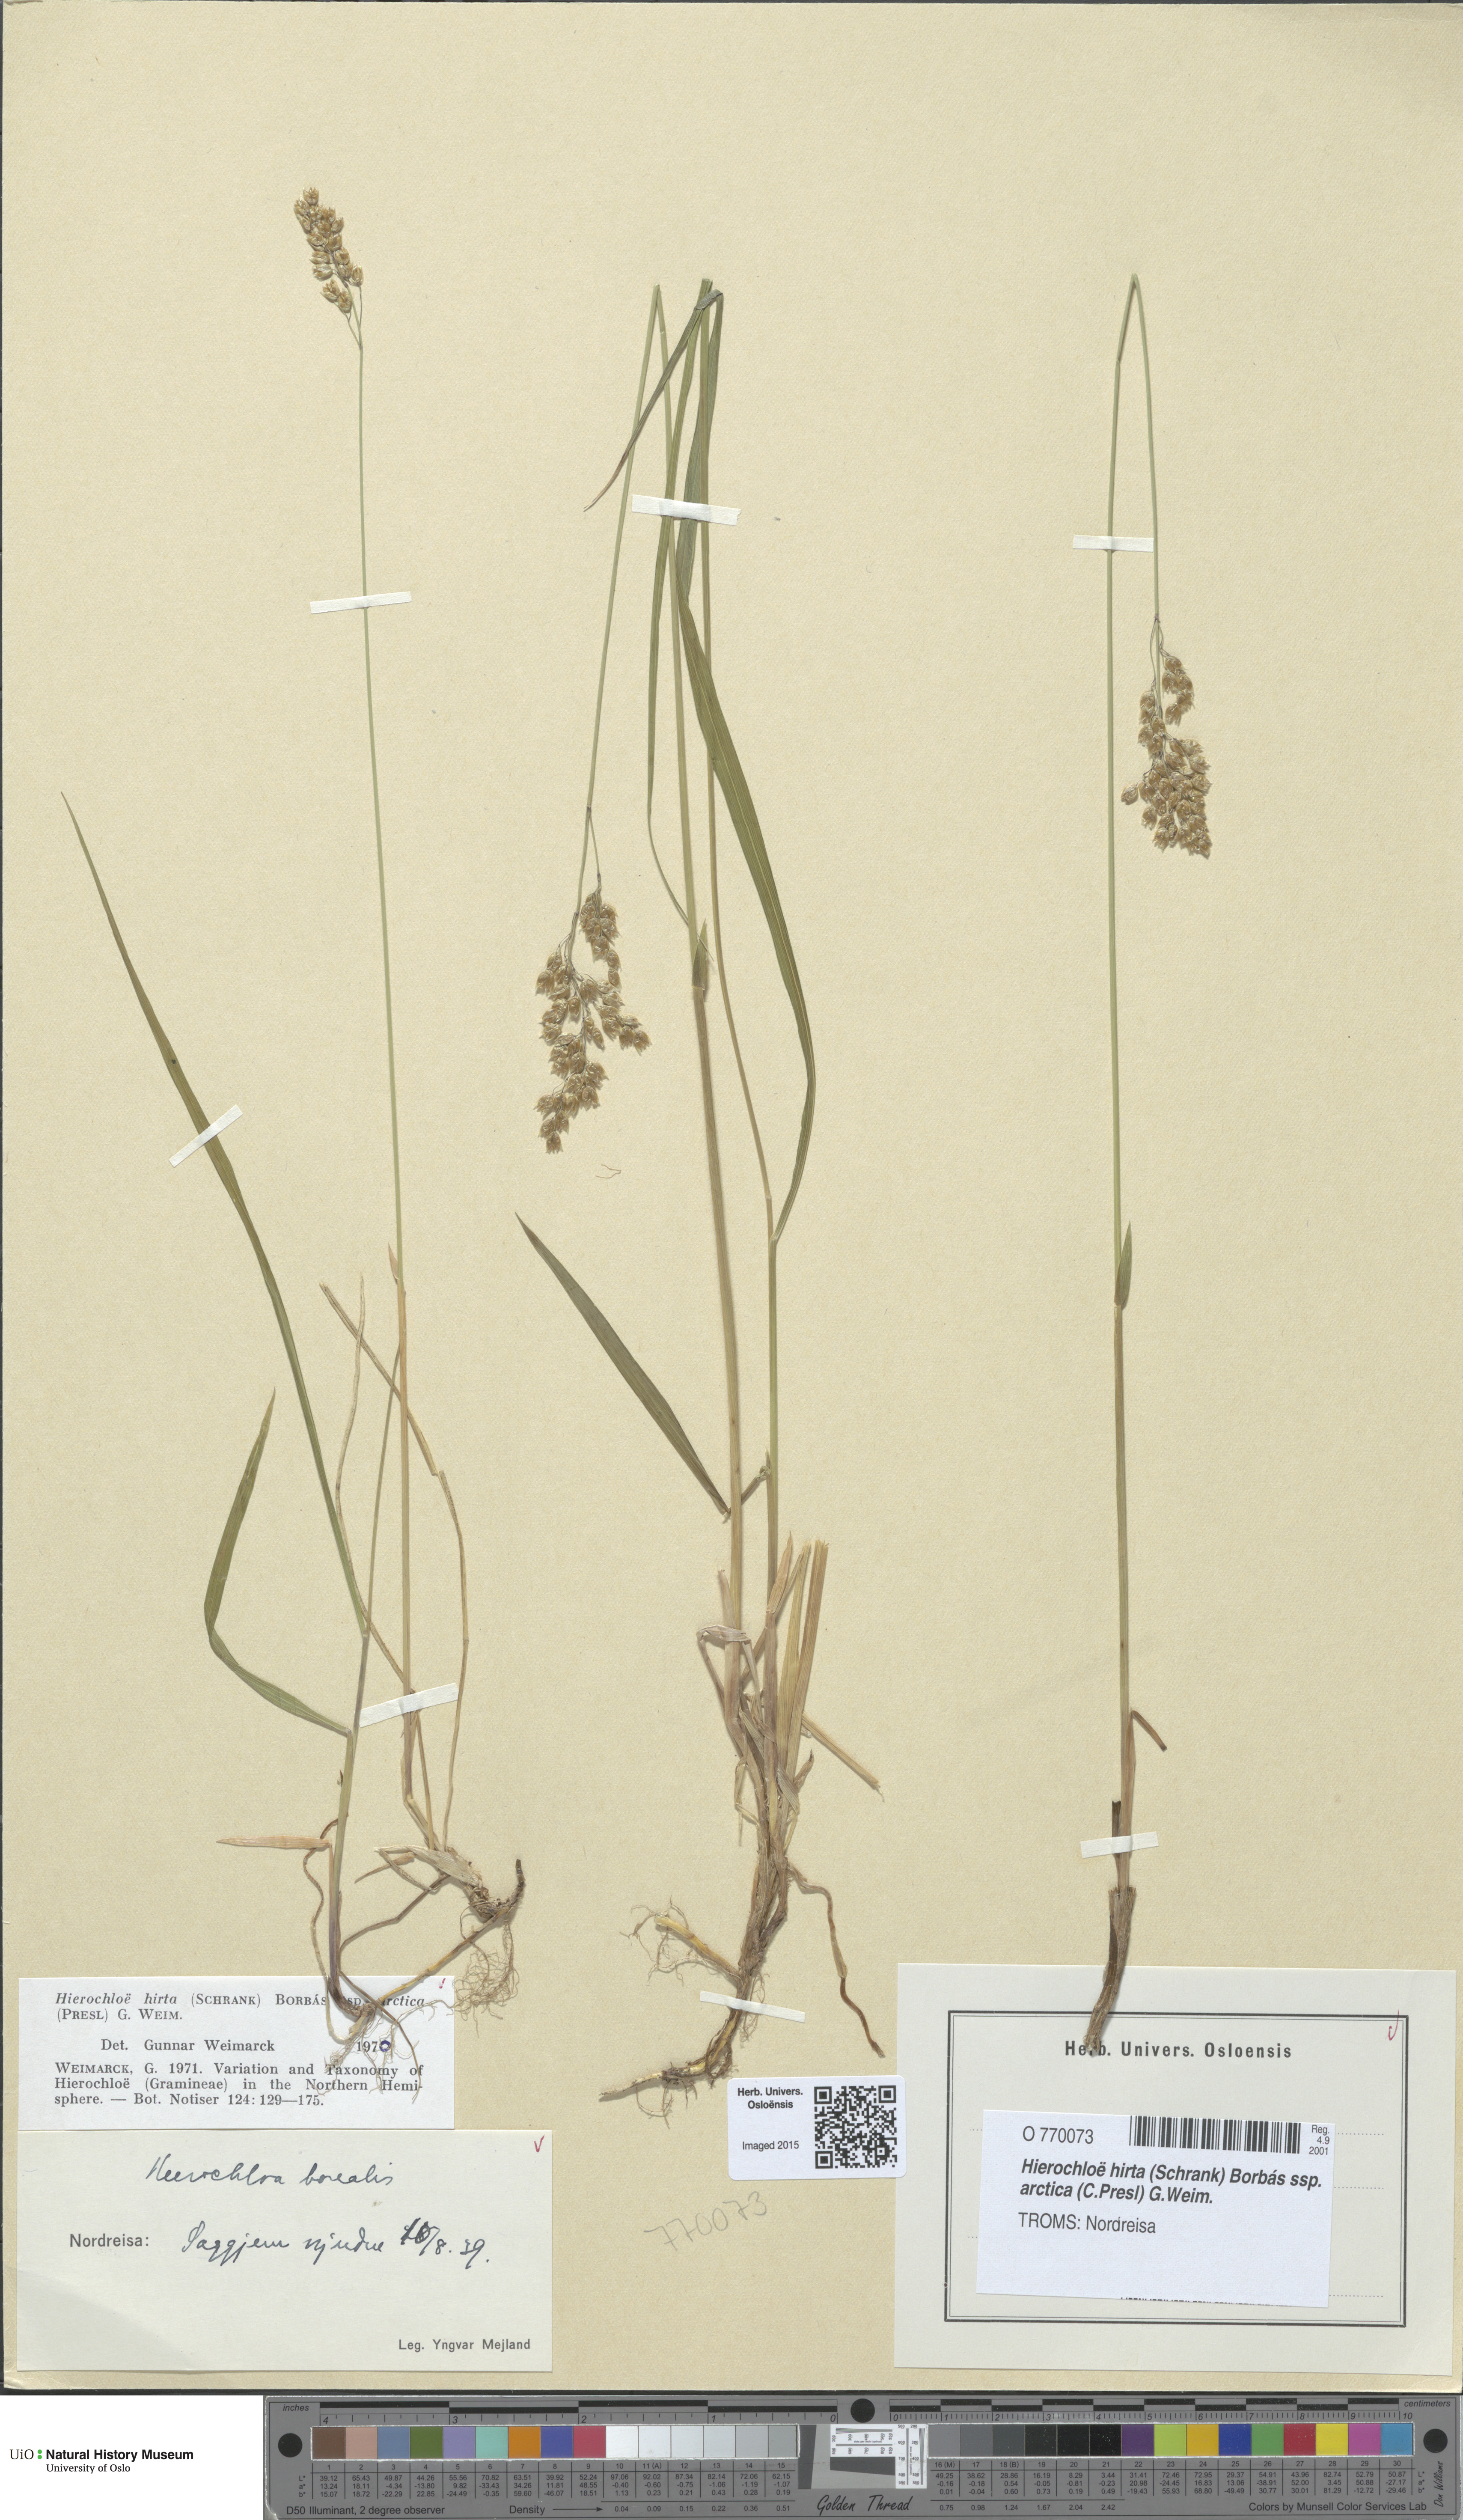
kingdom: Plantae
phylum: Tracheophyta
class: Liliopsida
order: Poales
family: Poaceae
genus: Anthoxanthum
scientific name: Anthoxanthum nitens
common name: Holy grass
